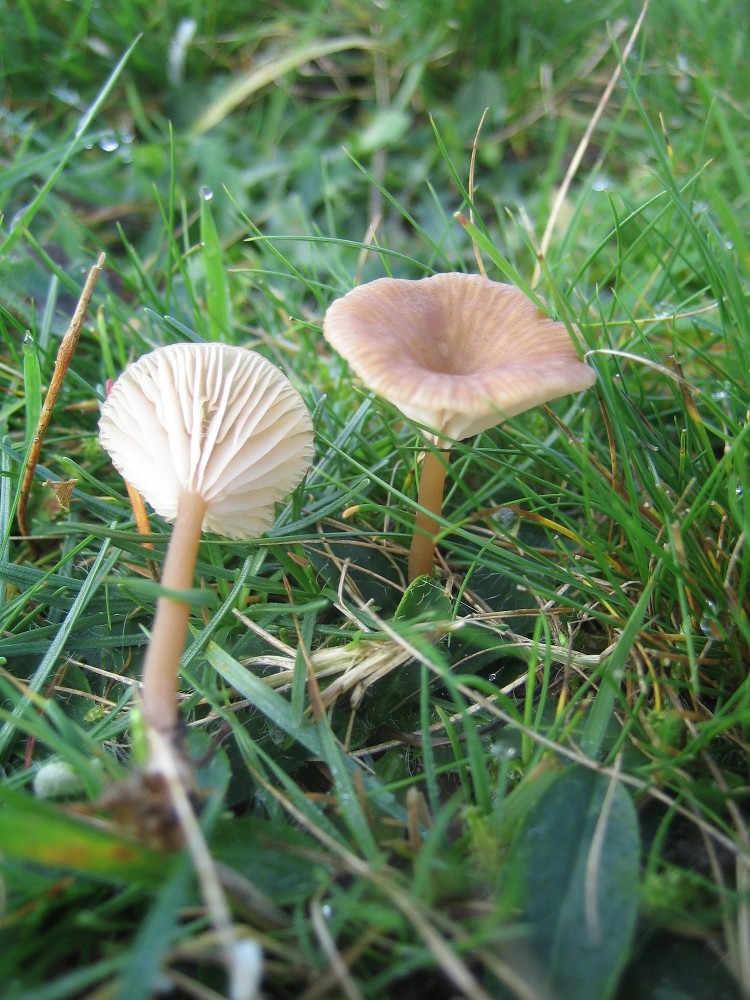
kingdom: Fungi
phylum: Basidiomycota
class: Agaricomycetes
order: Agaricales
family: Tricholomataceae
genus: Omphalina
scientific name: Omphalina pyxidata
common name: rødbrun navlehat
